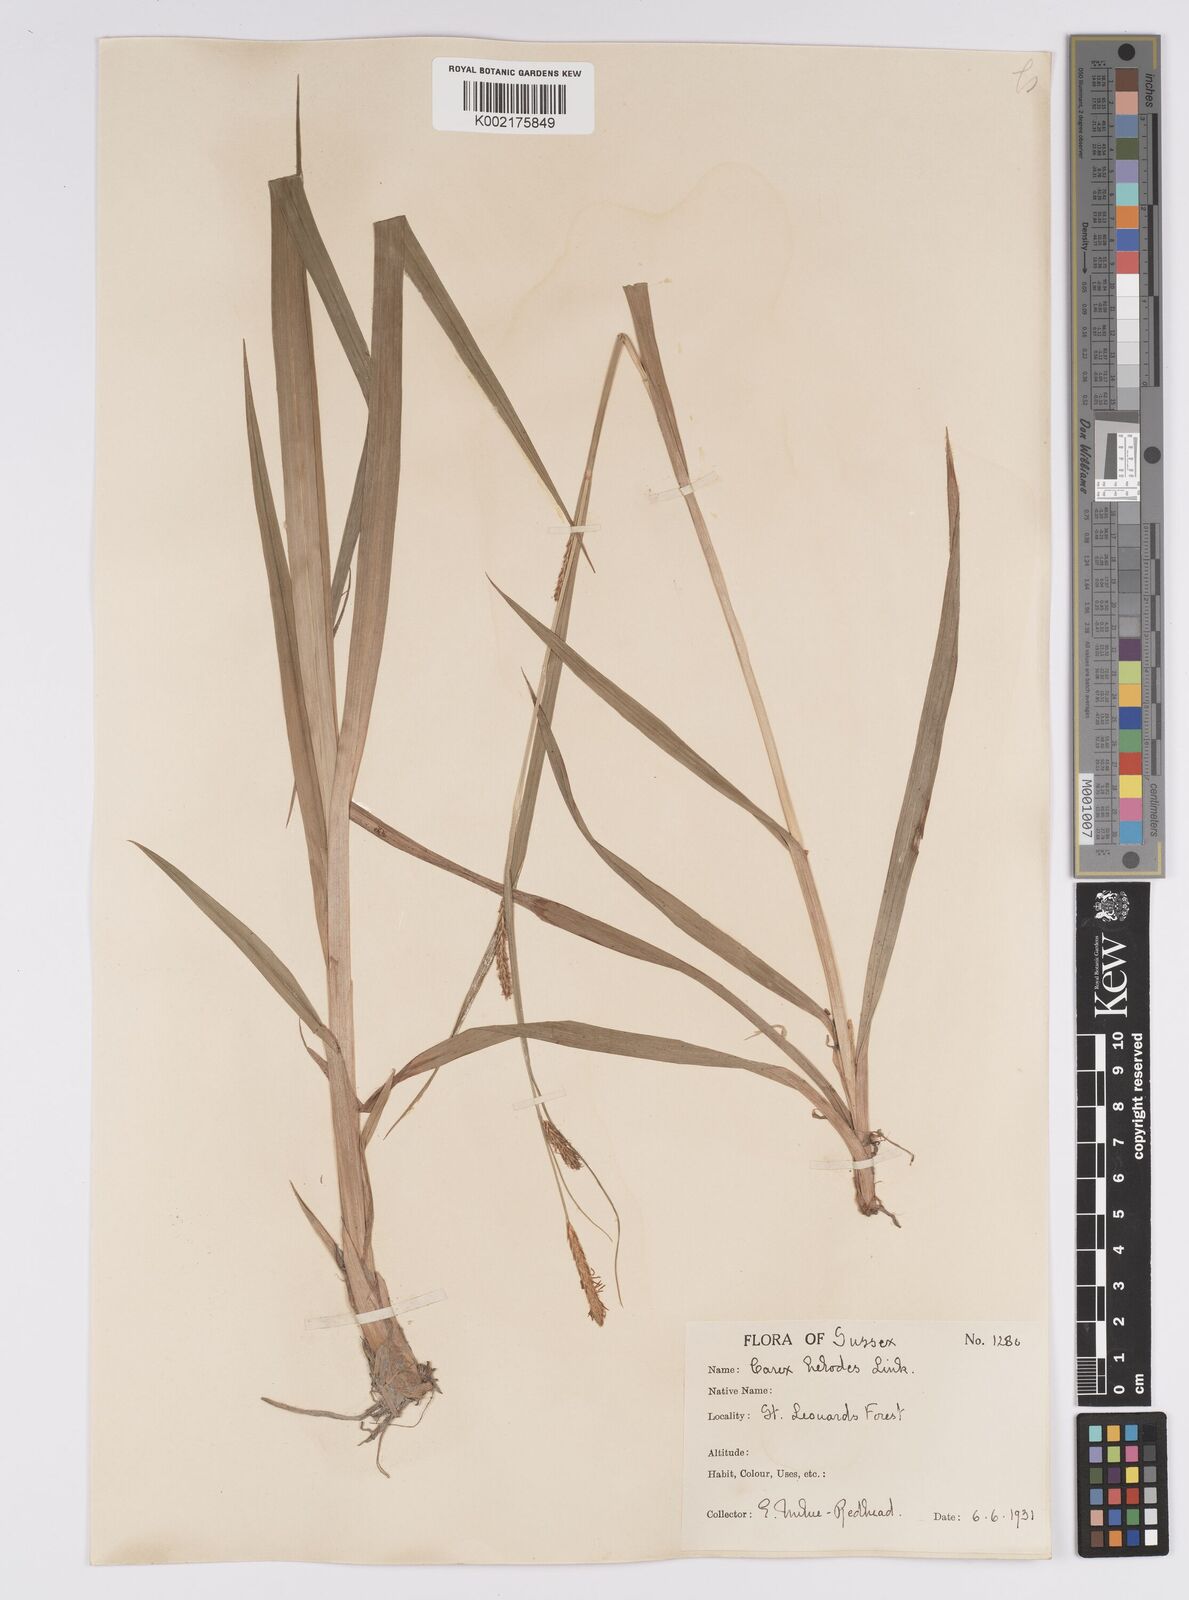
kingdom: Plantae
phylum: Tracheophyta
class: Liliopsida
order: Poales
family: Cyperaceae
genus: Carex
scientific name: Carex laevigata
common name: Smooth-stalked sedge
